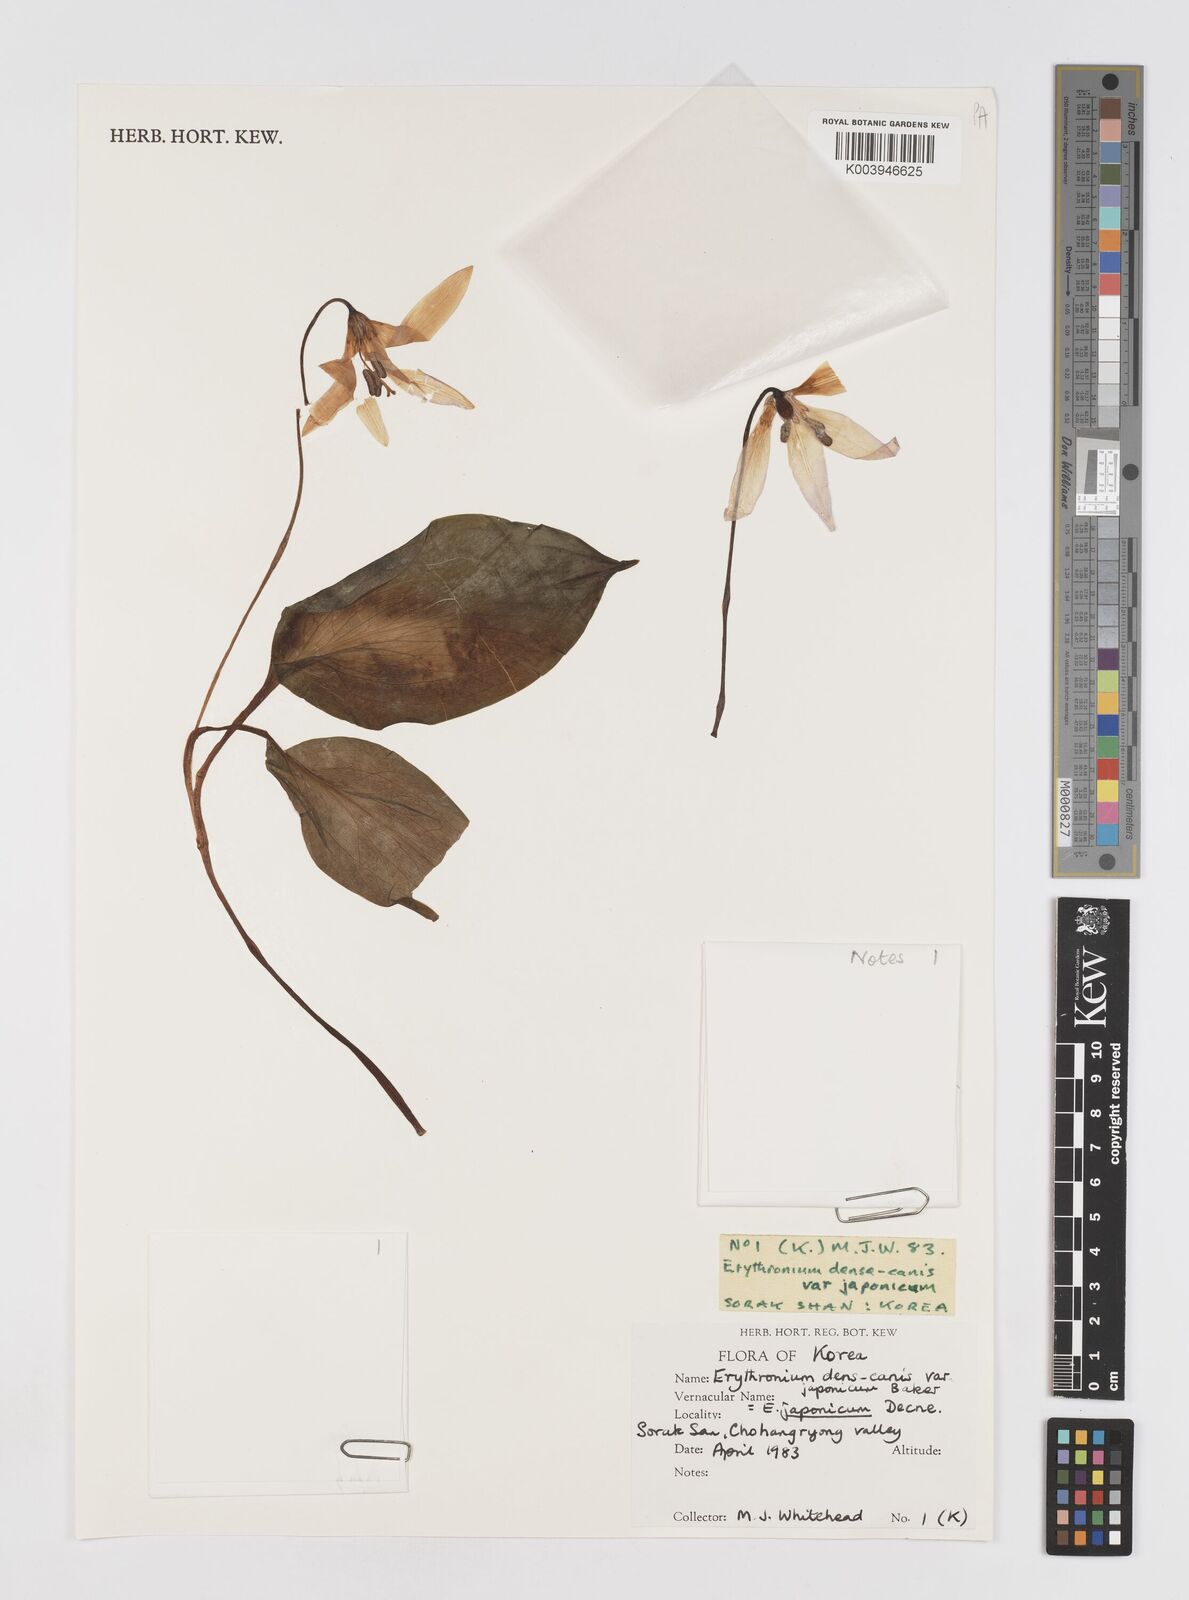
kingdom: Plantae
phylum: Tracheophyta
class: Liliopsida
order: Liliales
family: Liliaceae
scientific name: Liliaceae
